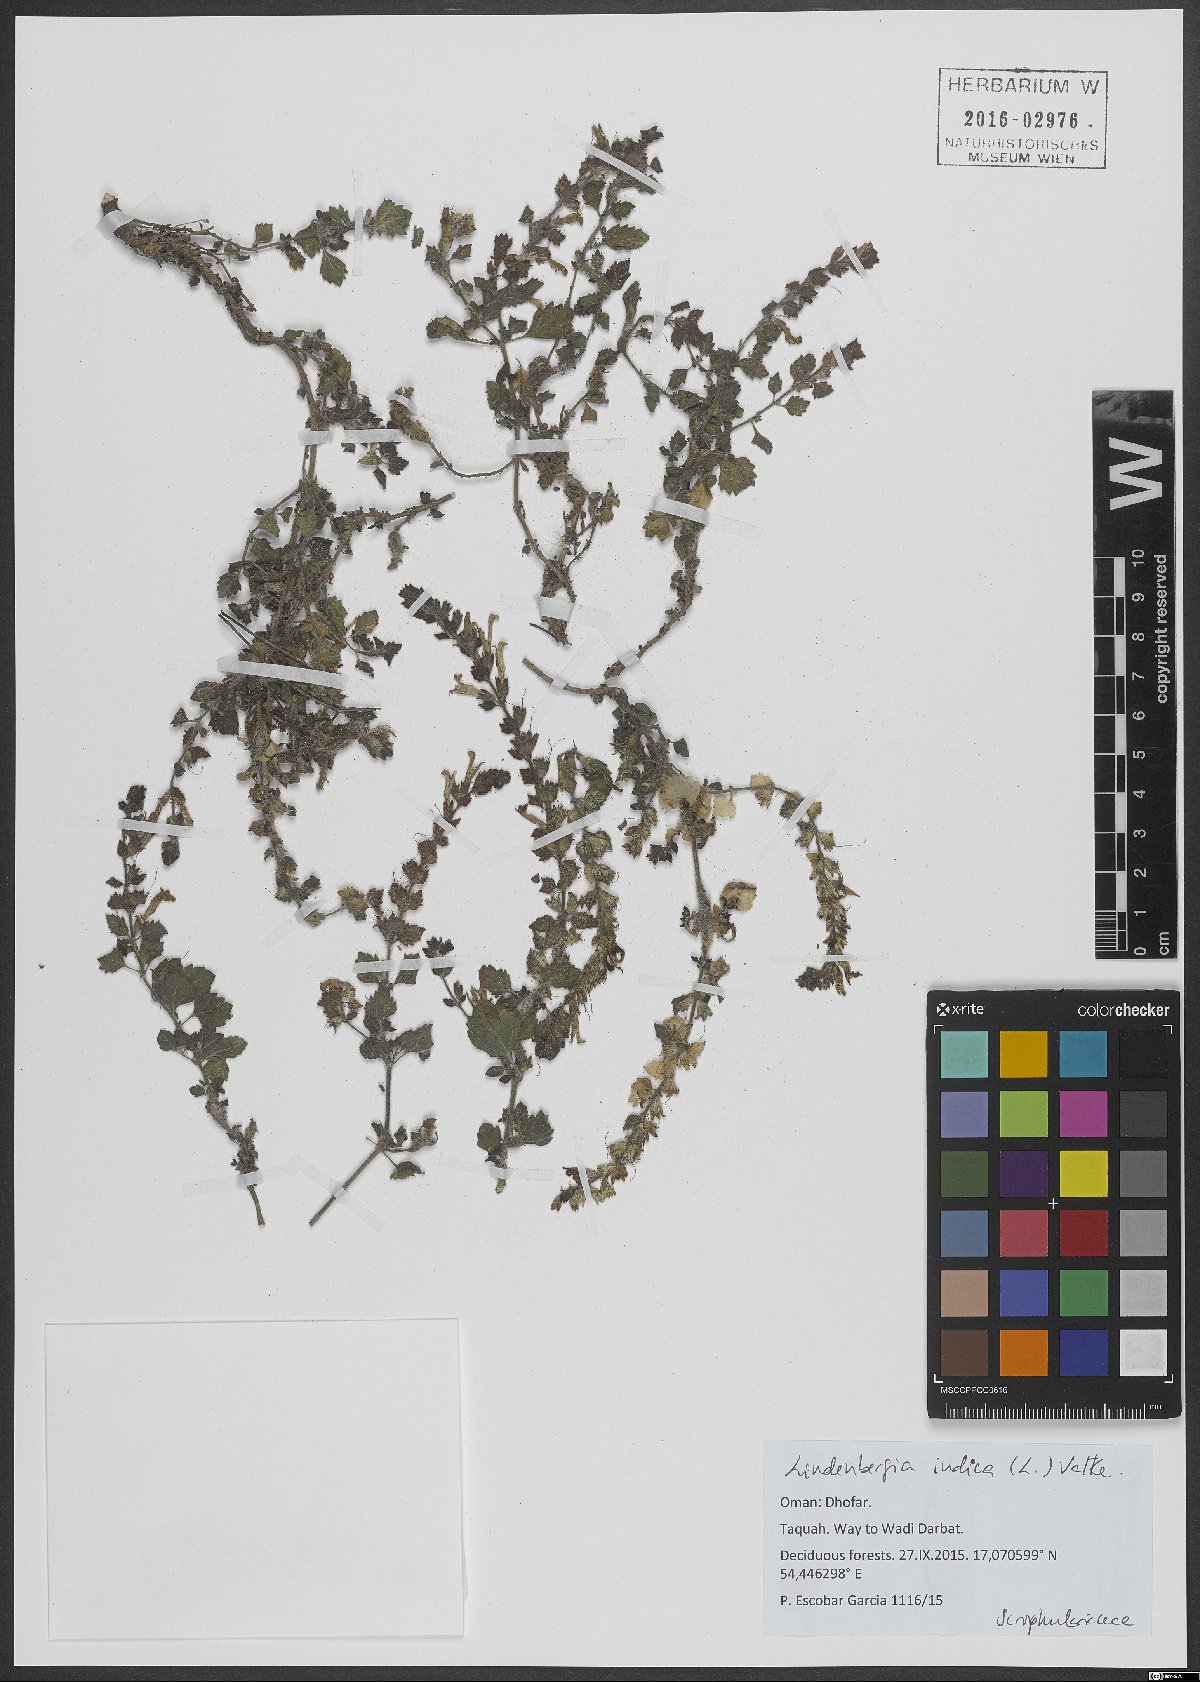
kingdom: Plantae
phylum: Tracheophyta
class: Magnoliopsida
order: Lamiales
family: Orobanchaceae
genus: Lindenbergia
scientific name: Lindenbergia indica
